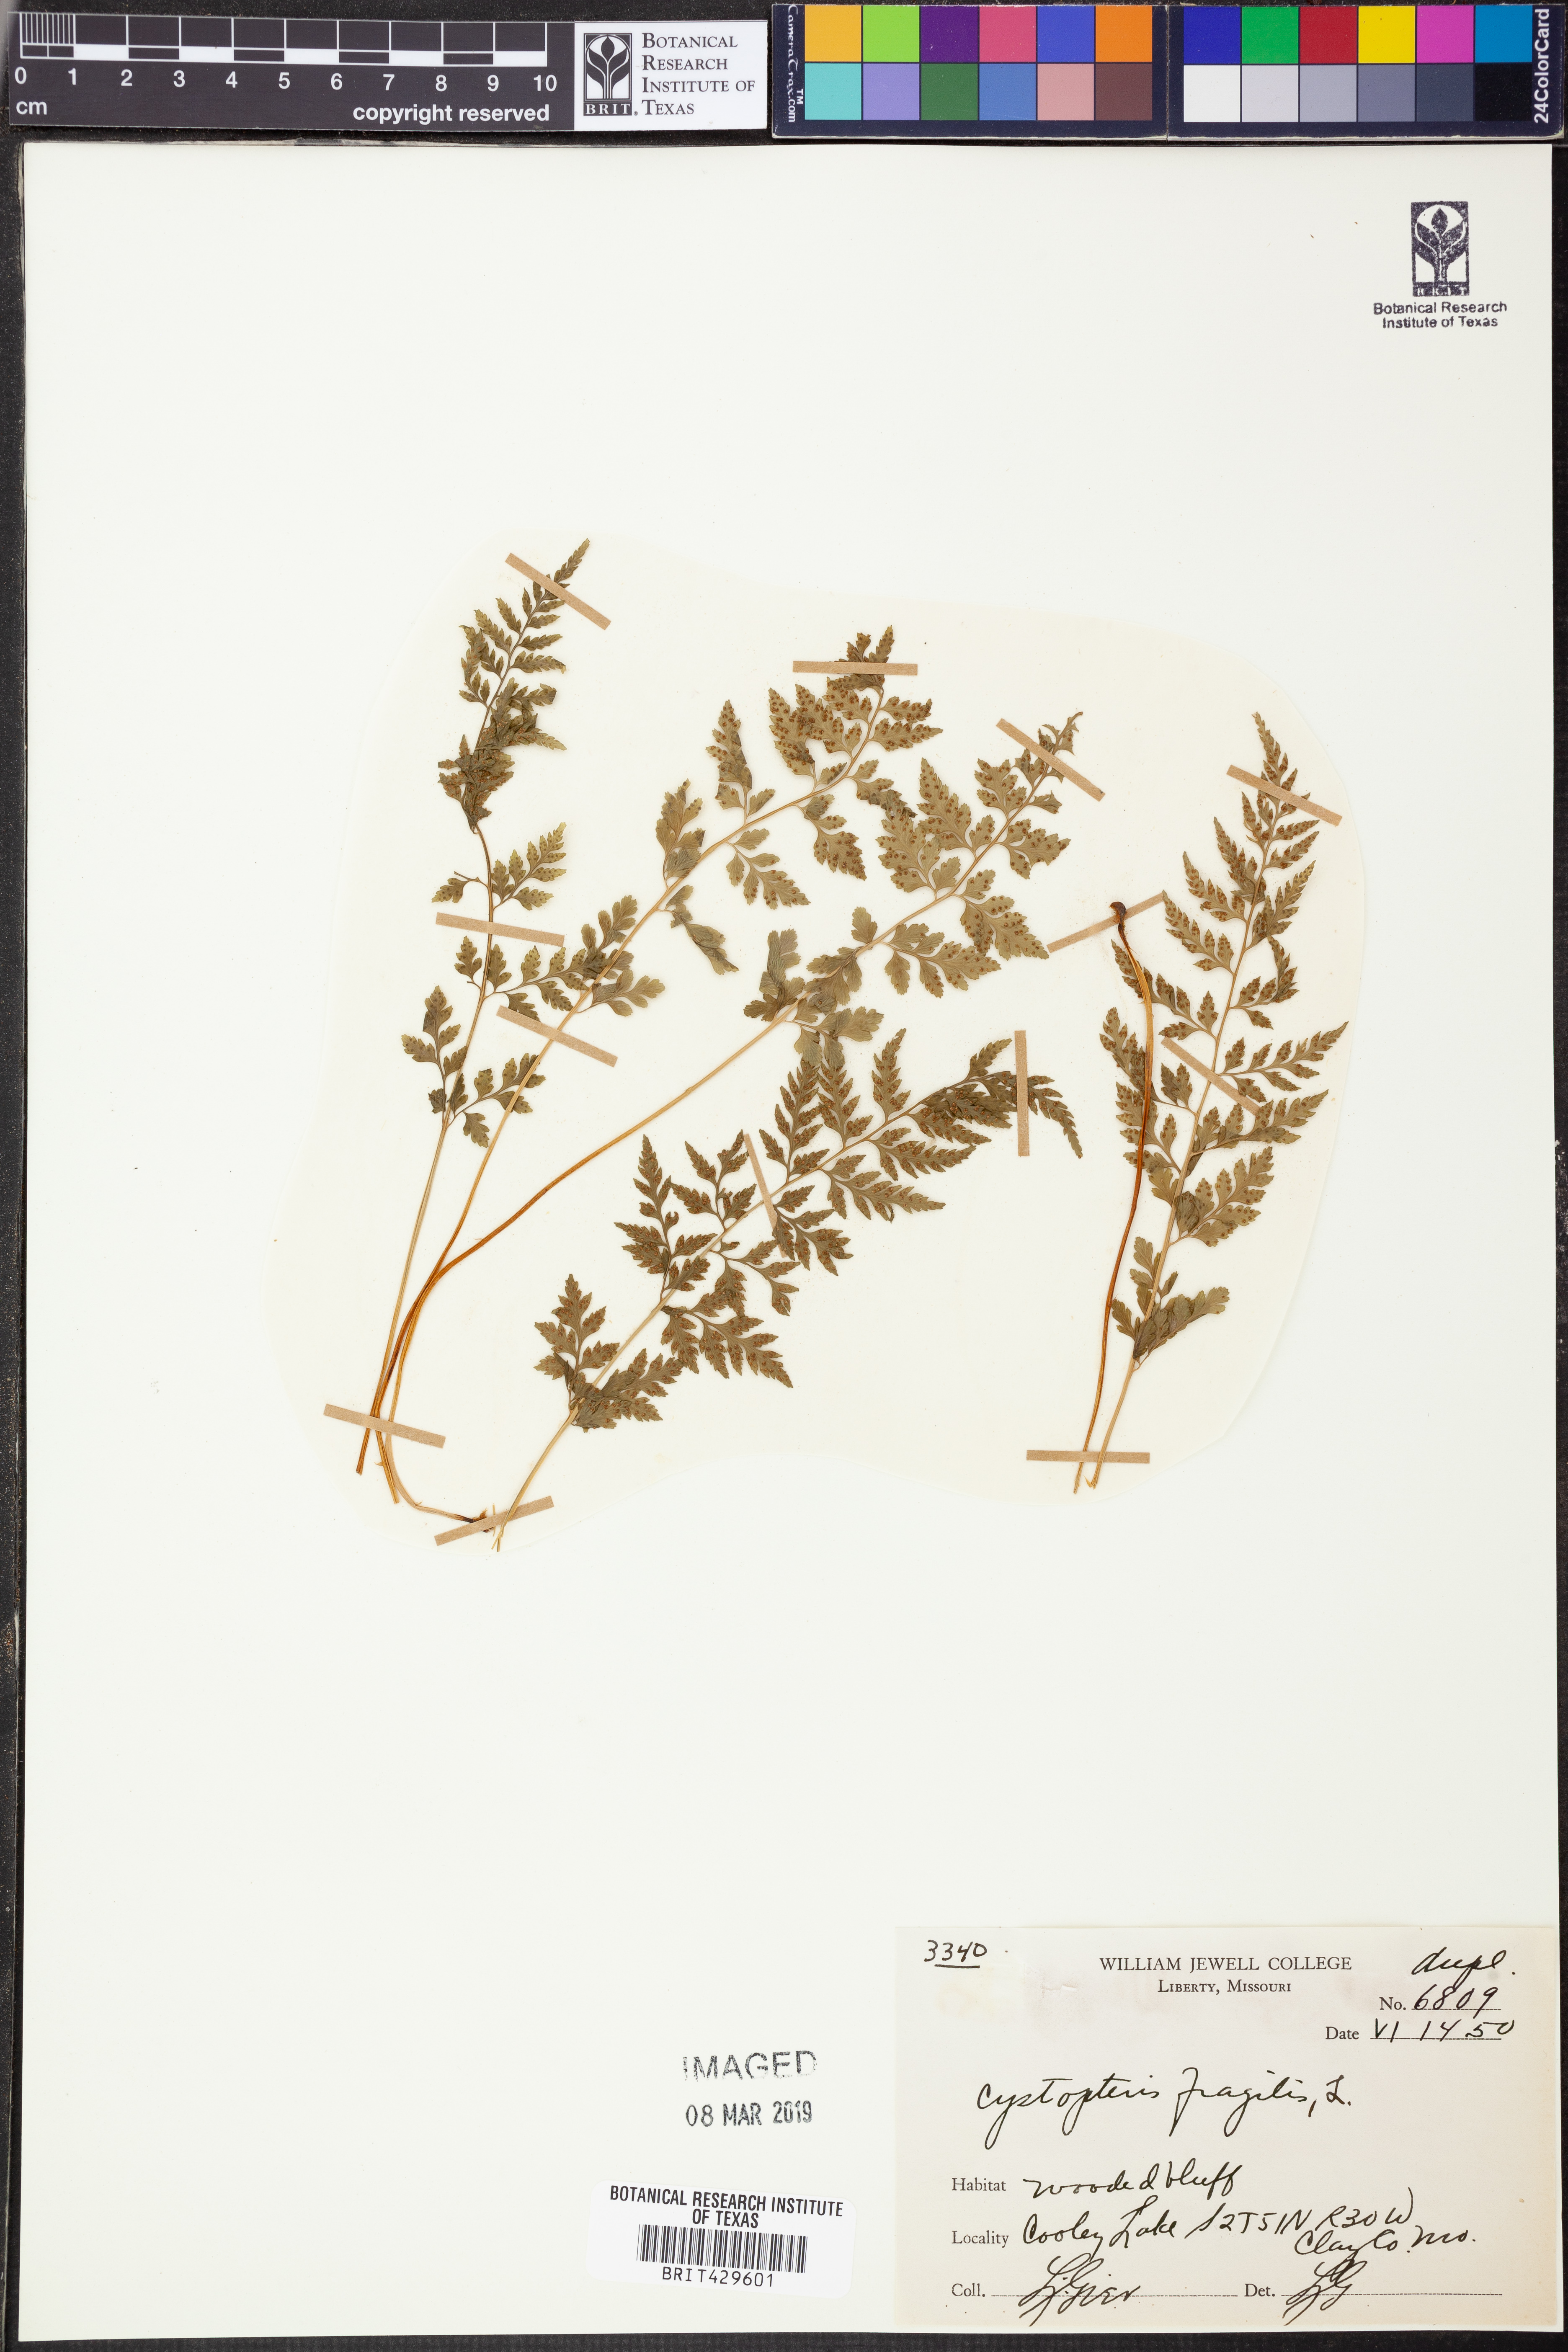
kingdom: Plantae
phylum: Tracheophyta
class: Polypodiopsida
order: Polypodiales
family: Cystopteridaceae
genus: Cystopteris
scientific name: Cystopteris fragilis
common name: Brittle bladder fern
